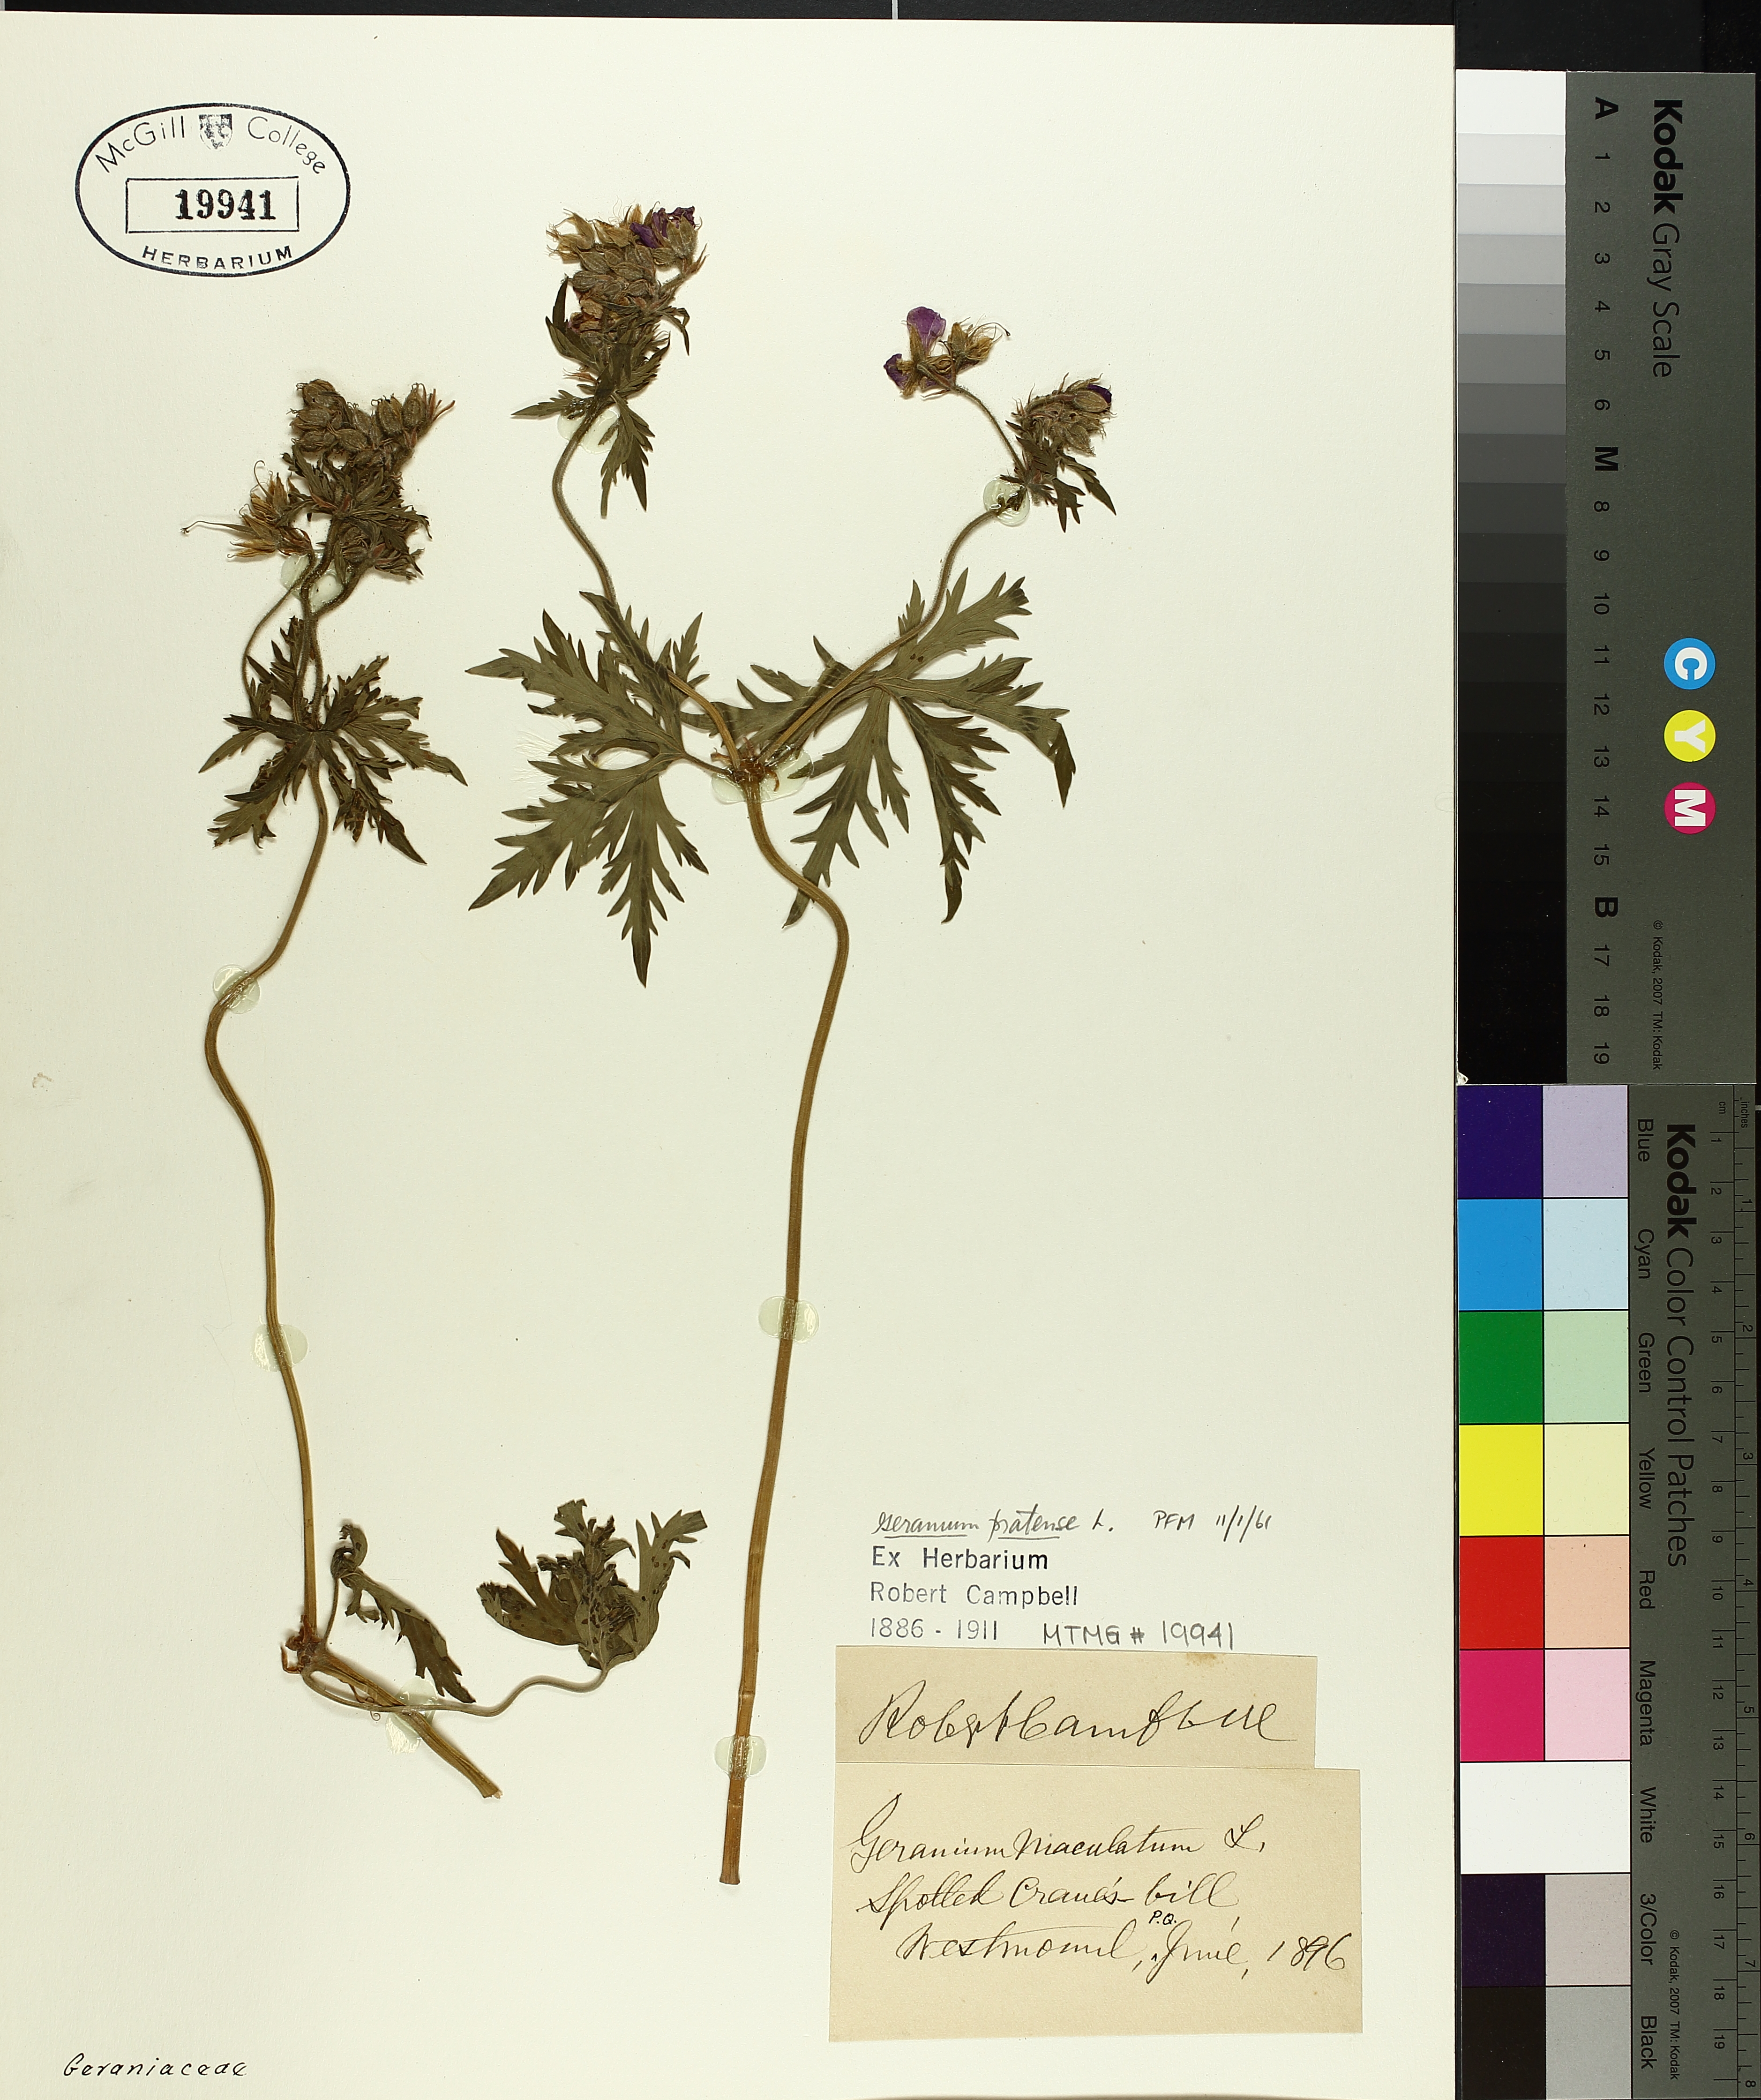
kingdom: Plantae
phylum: Tracheophyta
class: Magnoliopsida
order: Geraniales
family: Geraniaceae
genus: Geranium
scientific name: Geranium pratense
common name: Meadow crane's-bill
